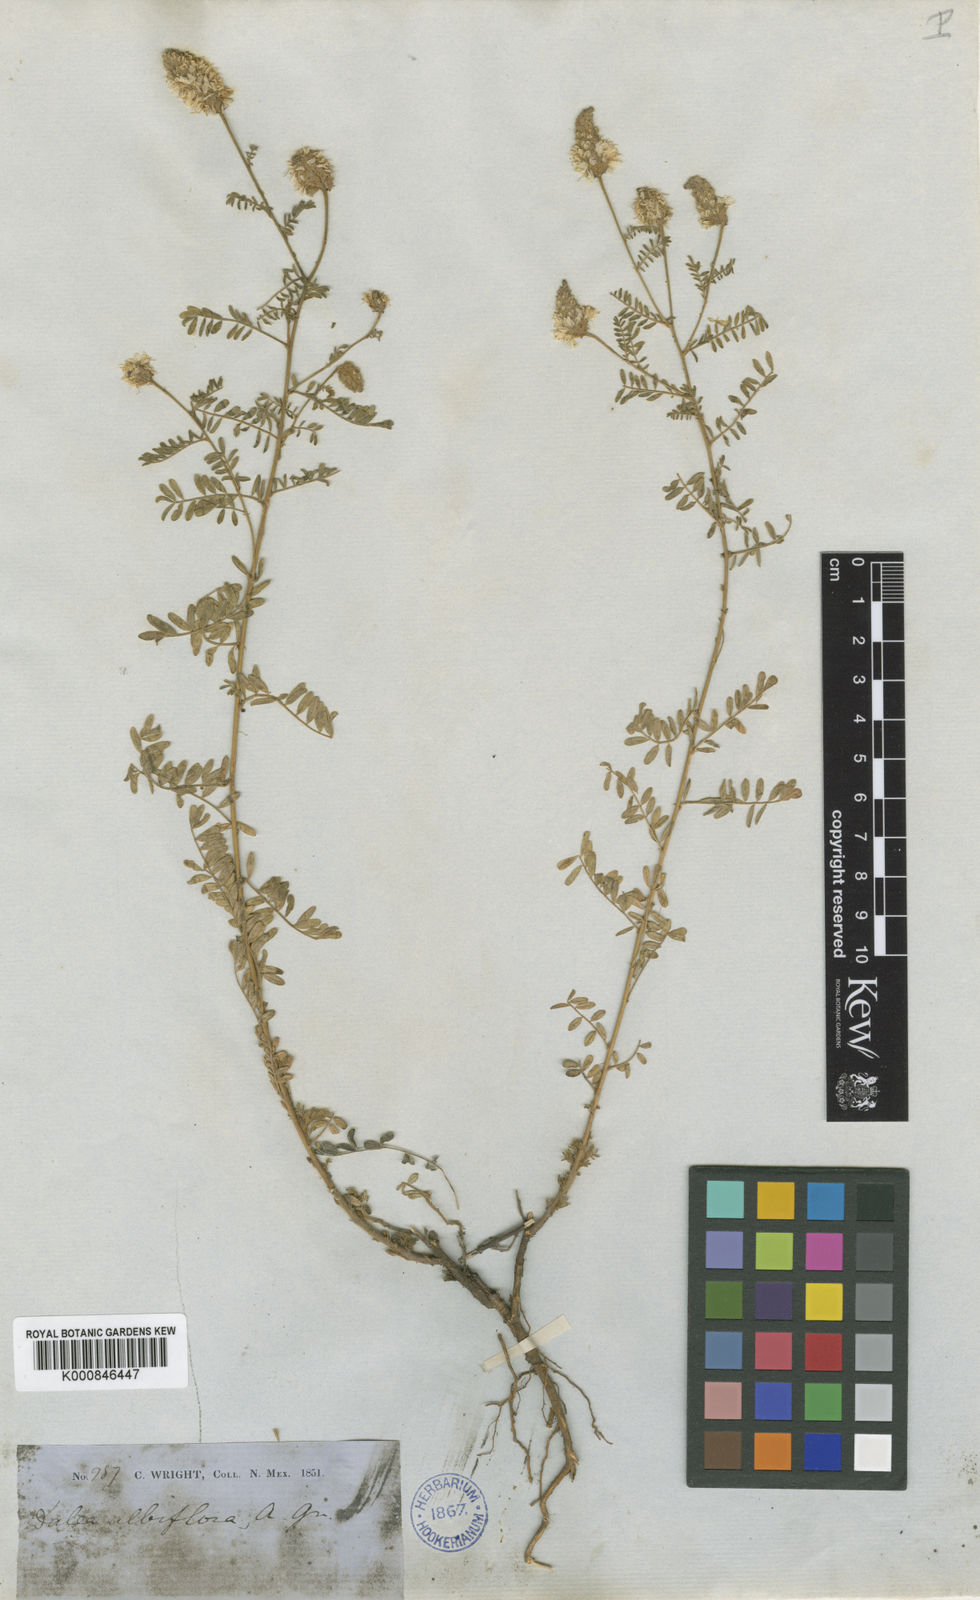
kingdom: Plantae
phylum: Tracheophyta
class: Magnoliopsida
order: Fabales
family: Fabaceae
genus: Dalea
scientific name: Dalea albiflora
